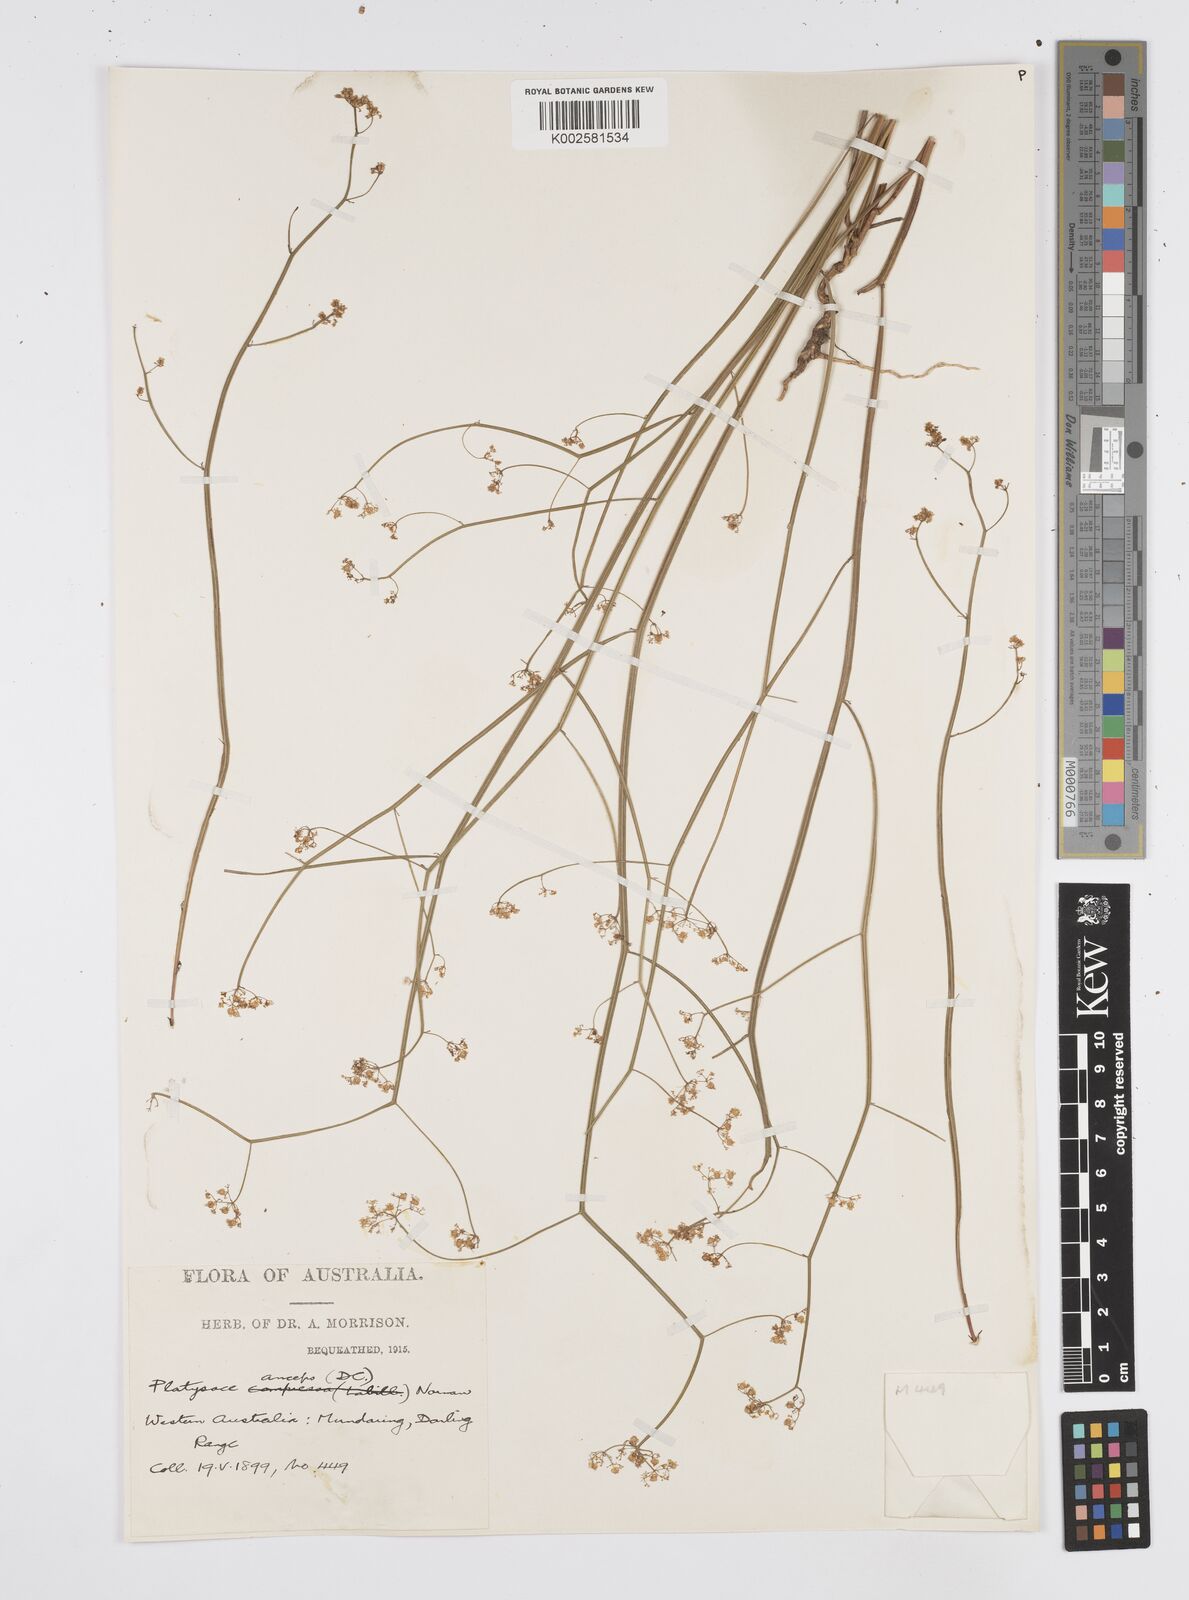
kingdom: Plantae
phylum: Tracheophyta
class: Magnoliopsida
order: Apiales
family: Apiaceae
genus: Centella
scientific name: Centella
